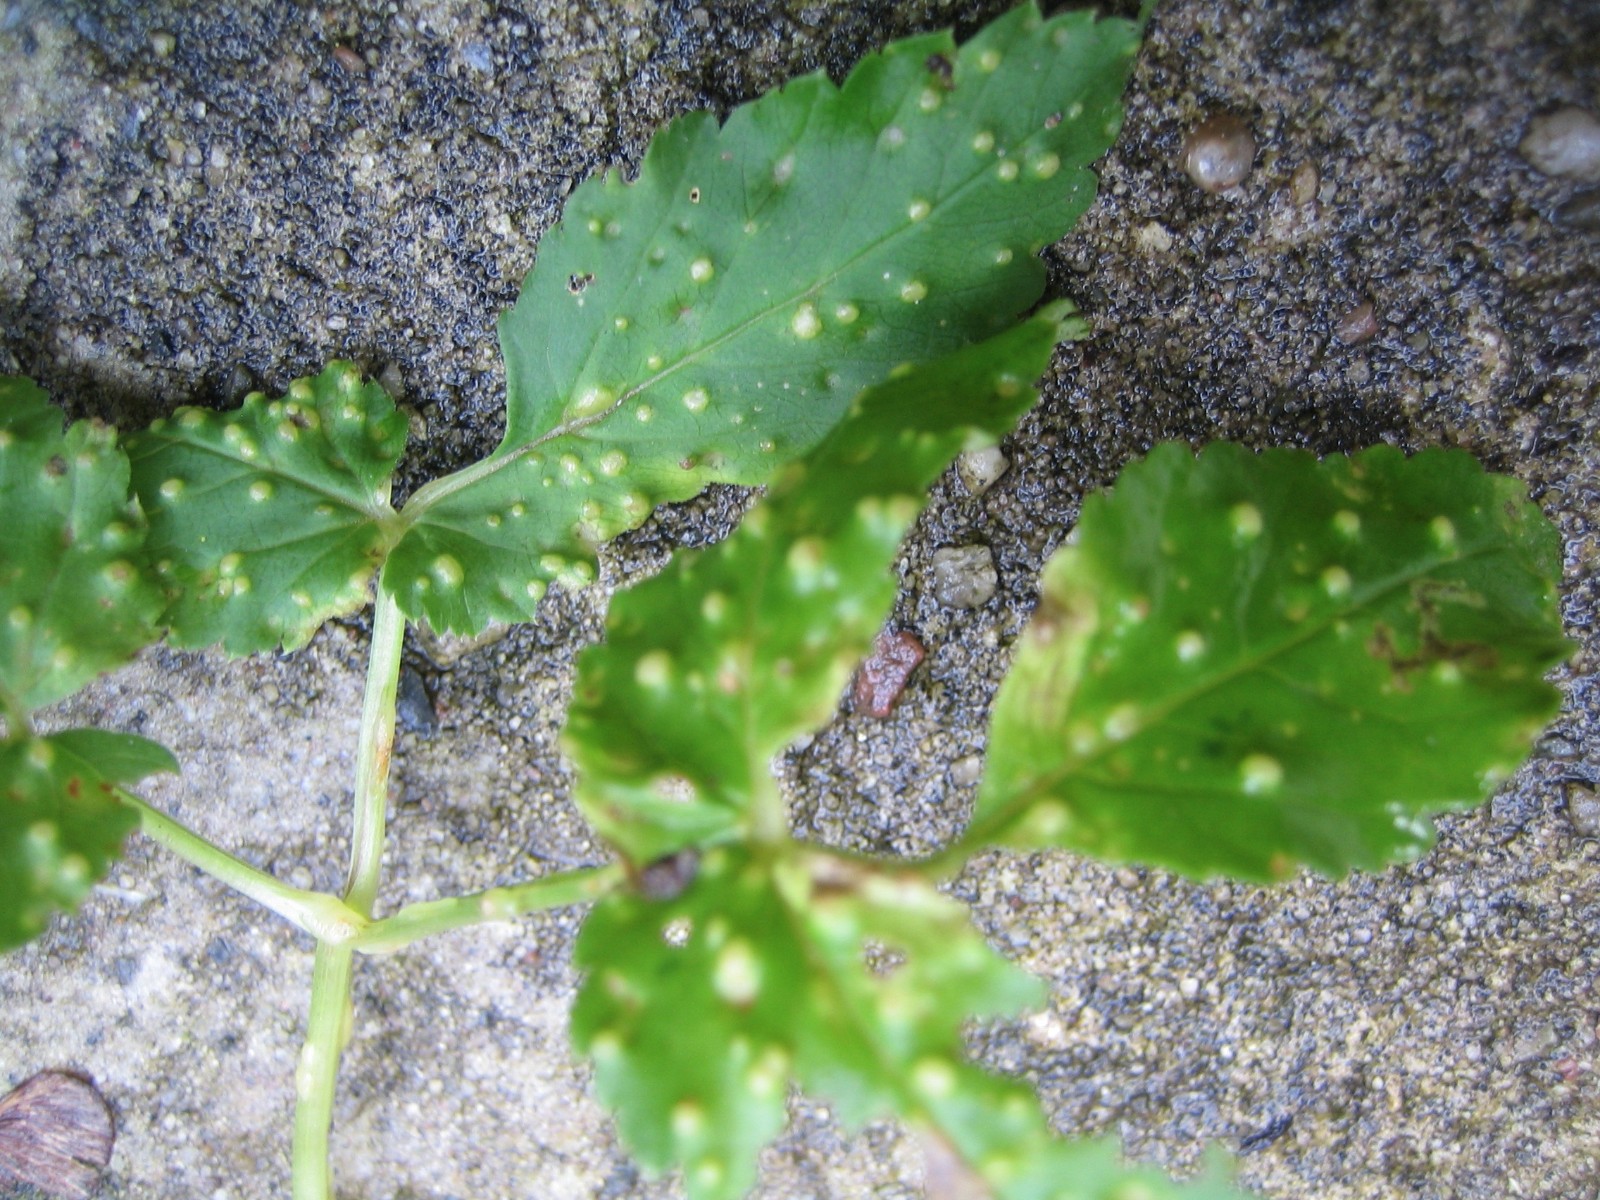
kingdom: Fungi
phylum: Ascomycota
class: Taphrinomycetes
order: Taphrinales
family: Taphrinaceae
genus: Protomyces
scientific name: Protomyces macrosporus
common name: skvalderkål-vablesæk
